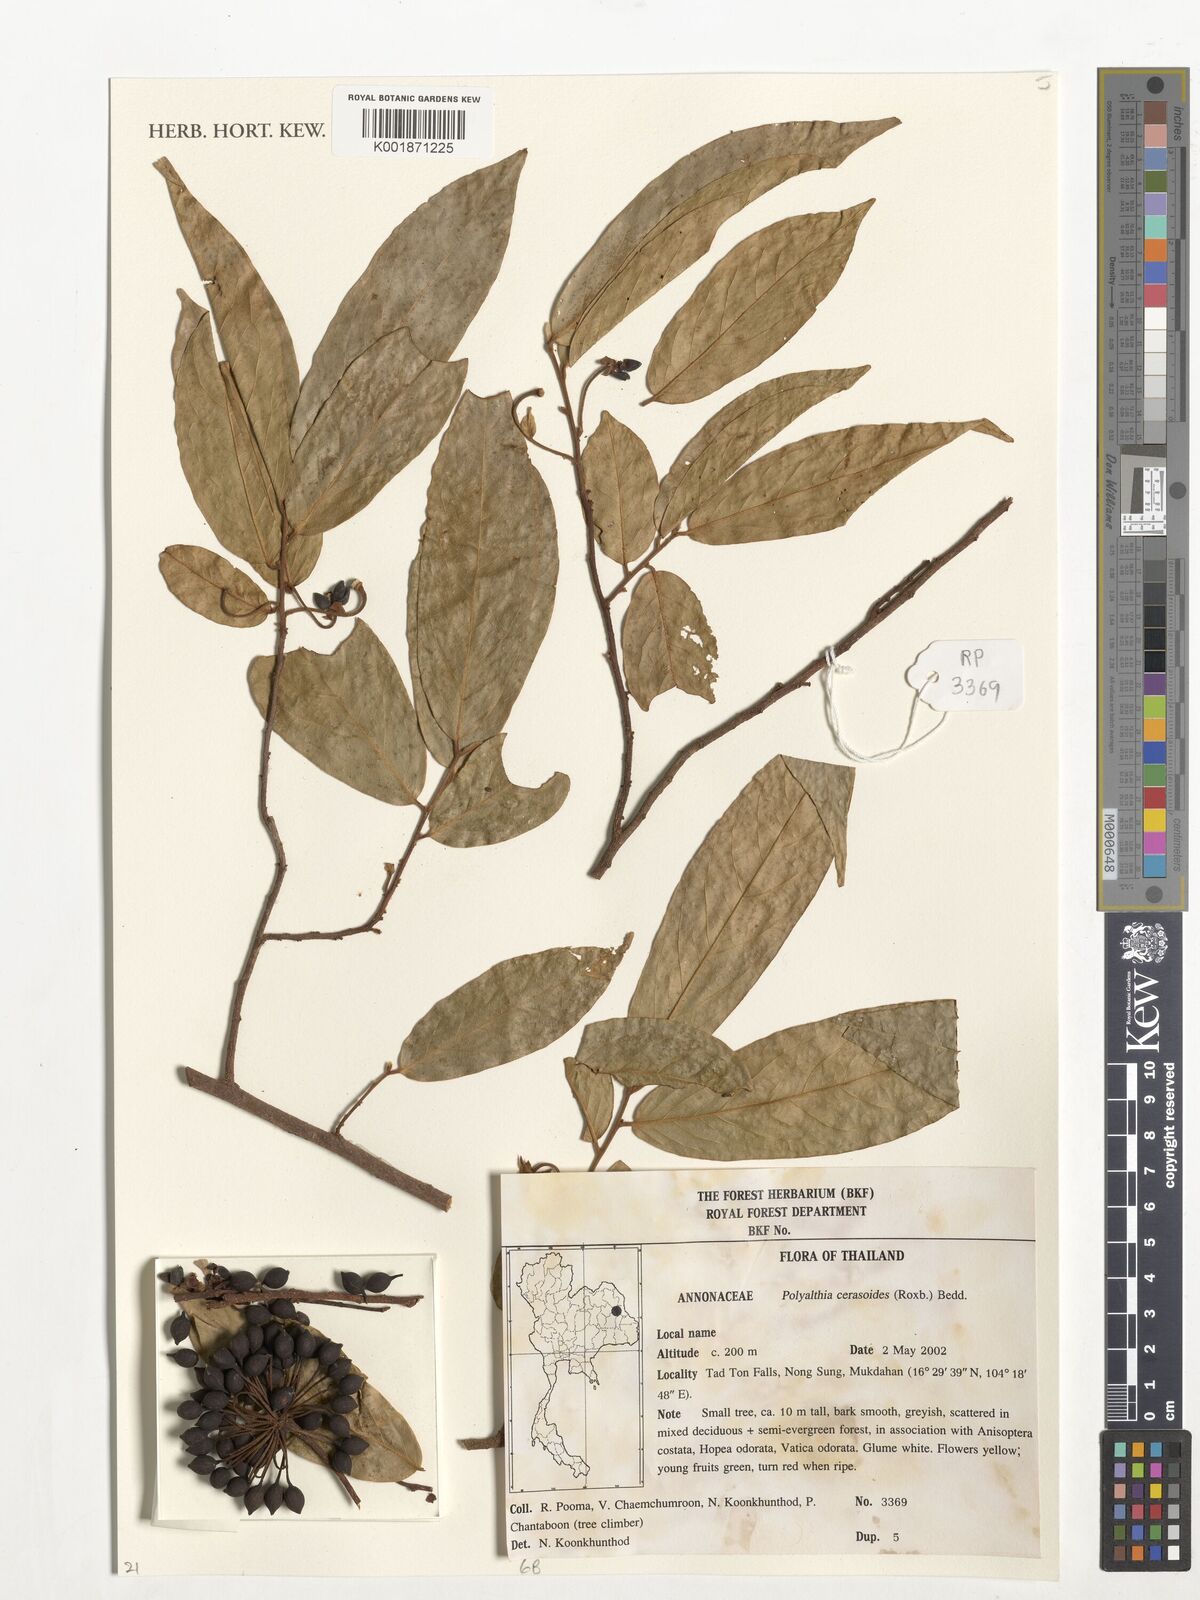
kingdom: Plantae
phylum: Tracheophyta
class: Magnoliopsida
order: Magnoliales
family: Annonaceae
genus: Hubera
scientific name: Hubera cerasoides
